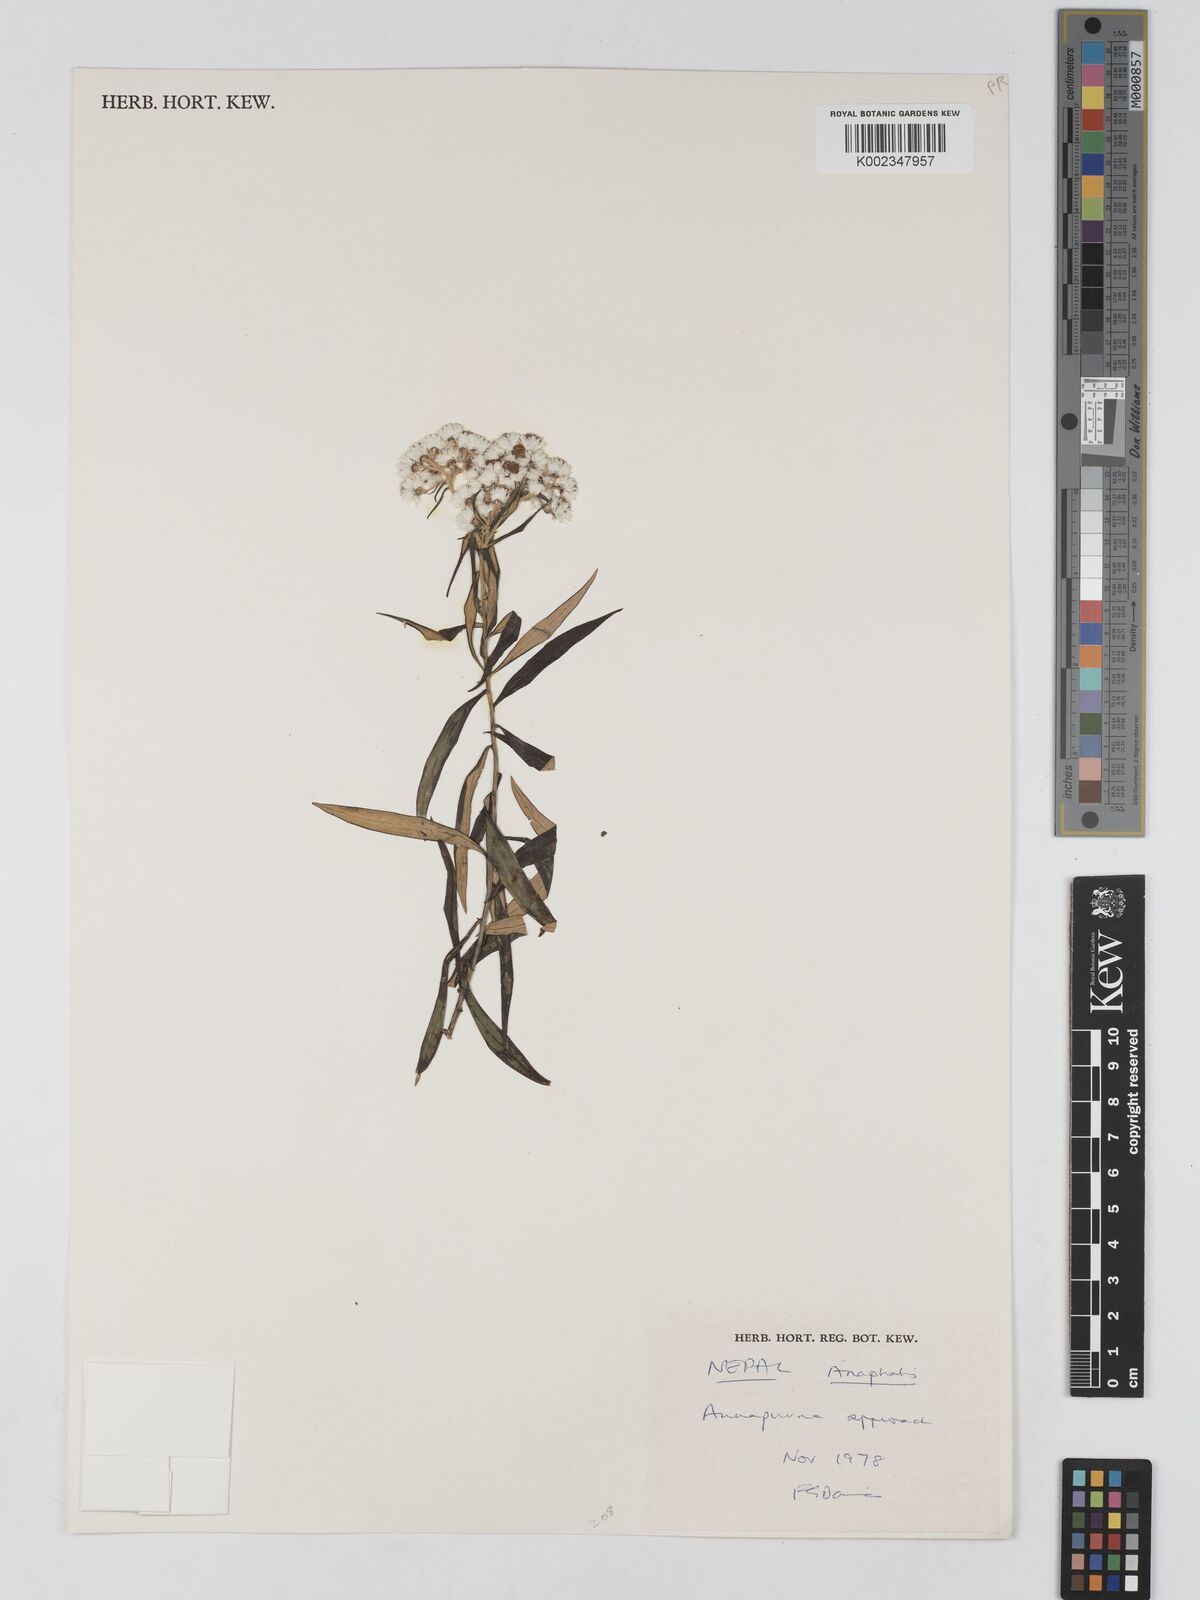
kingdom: Plantae
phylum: Tracheophyta
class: Magnoliopsida
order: Asterales
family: Asteraceae
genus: Anaphalis
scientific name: Anaphalis
